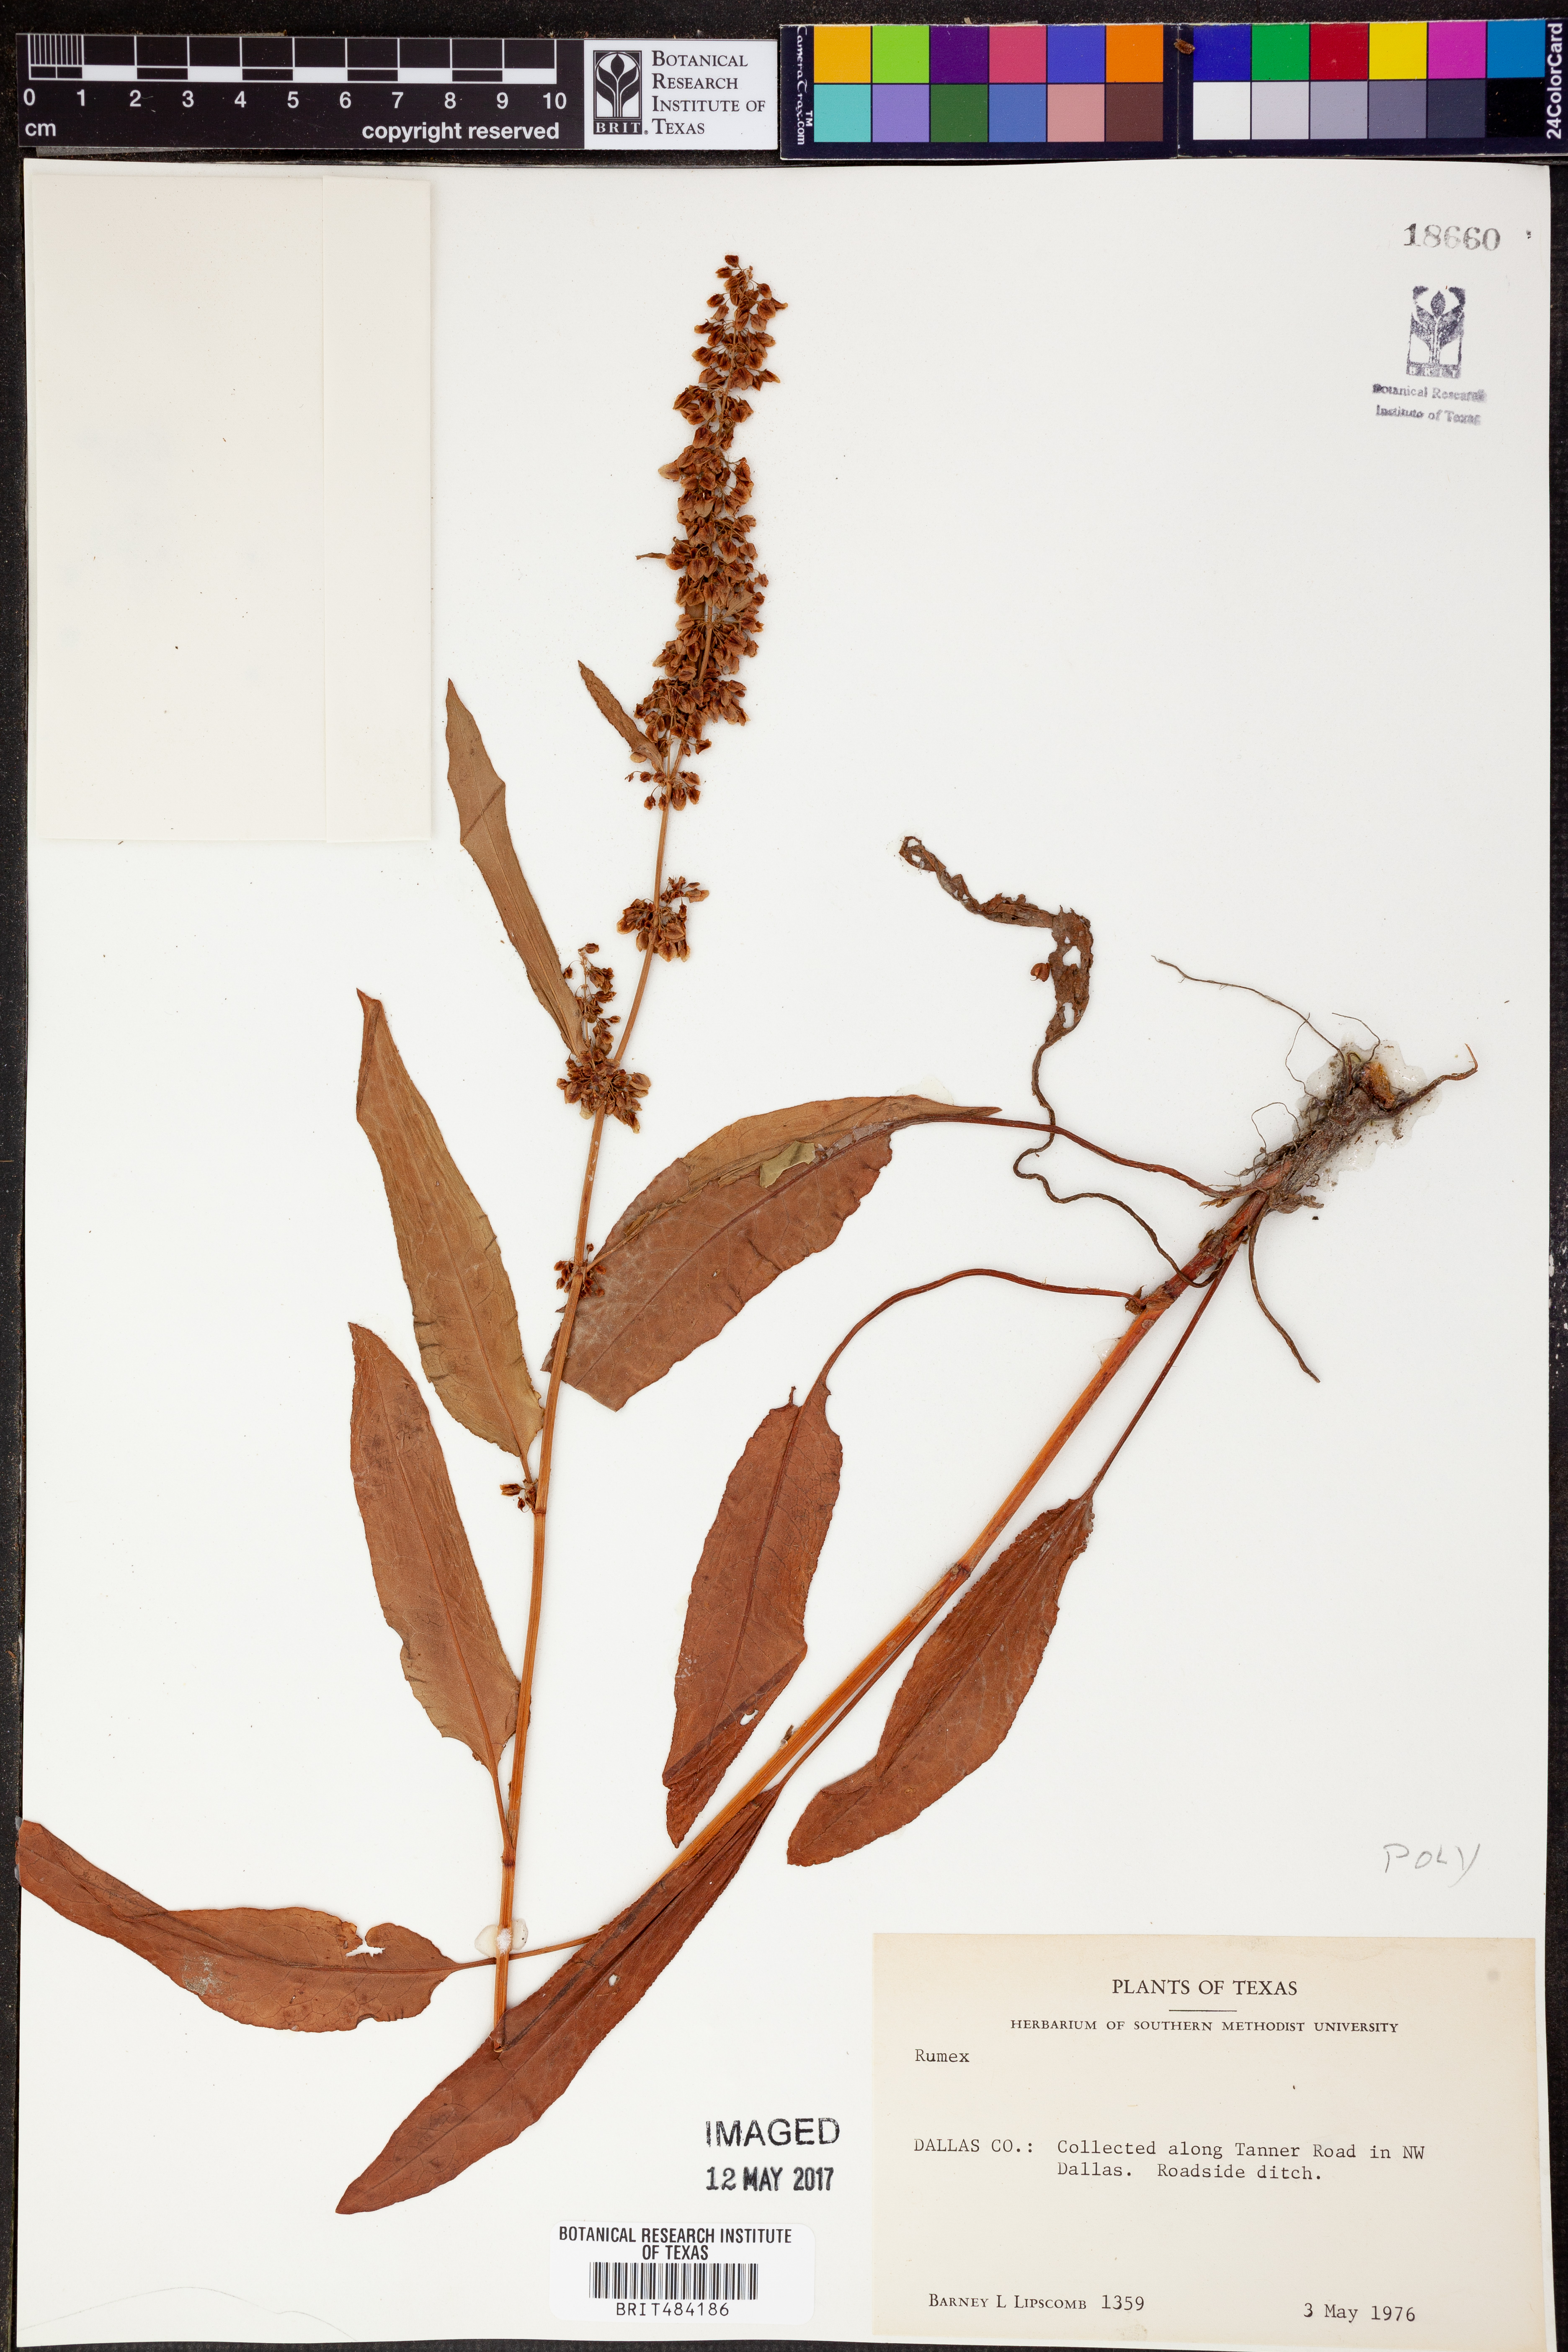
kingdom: Plantae
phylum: Tracheophyta
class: Magnoliopsida
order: Caryophyllales
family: Polygonaceae
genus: Rumex
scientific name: Rumex
